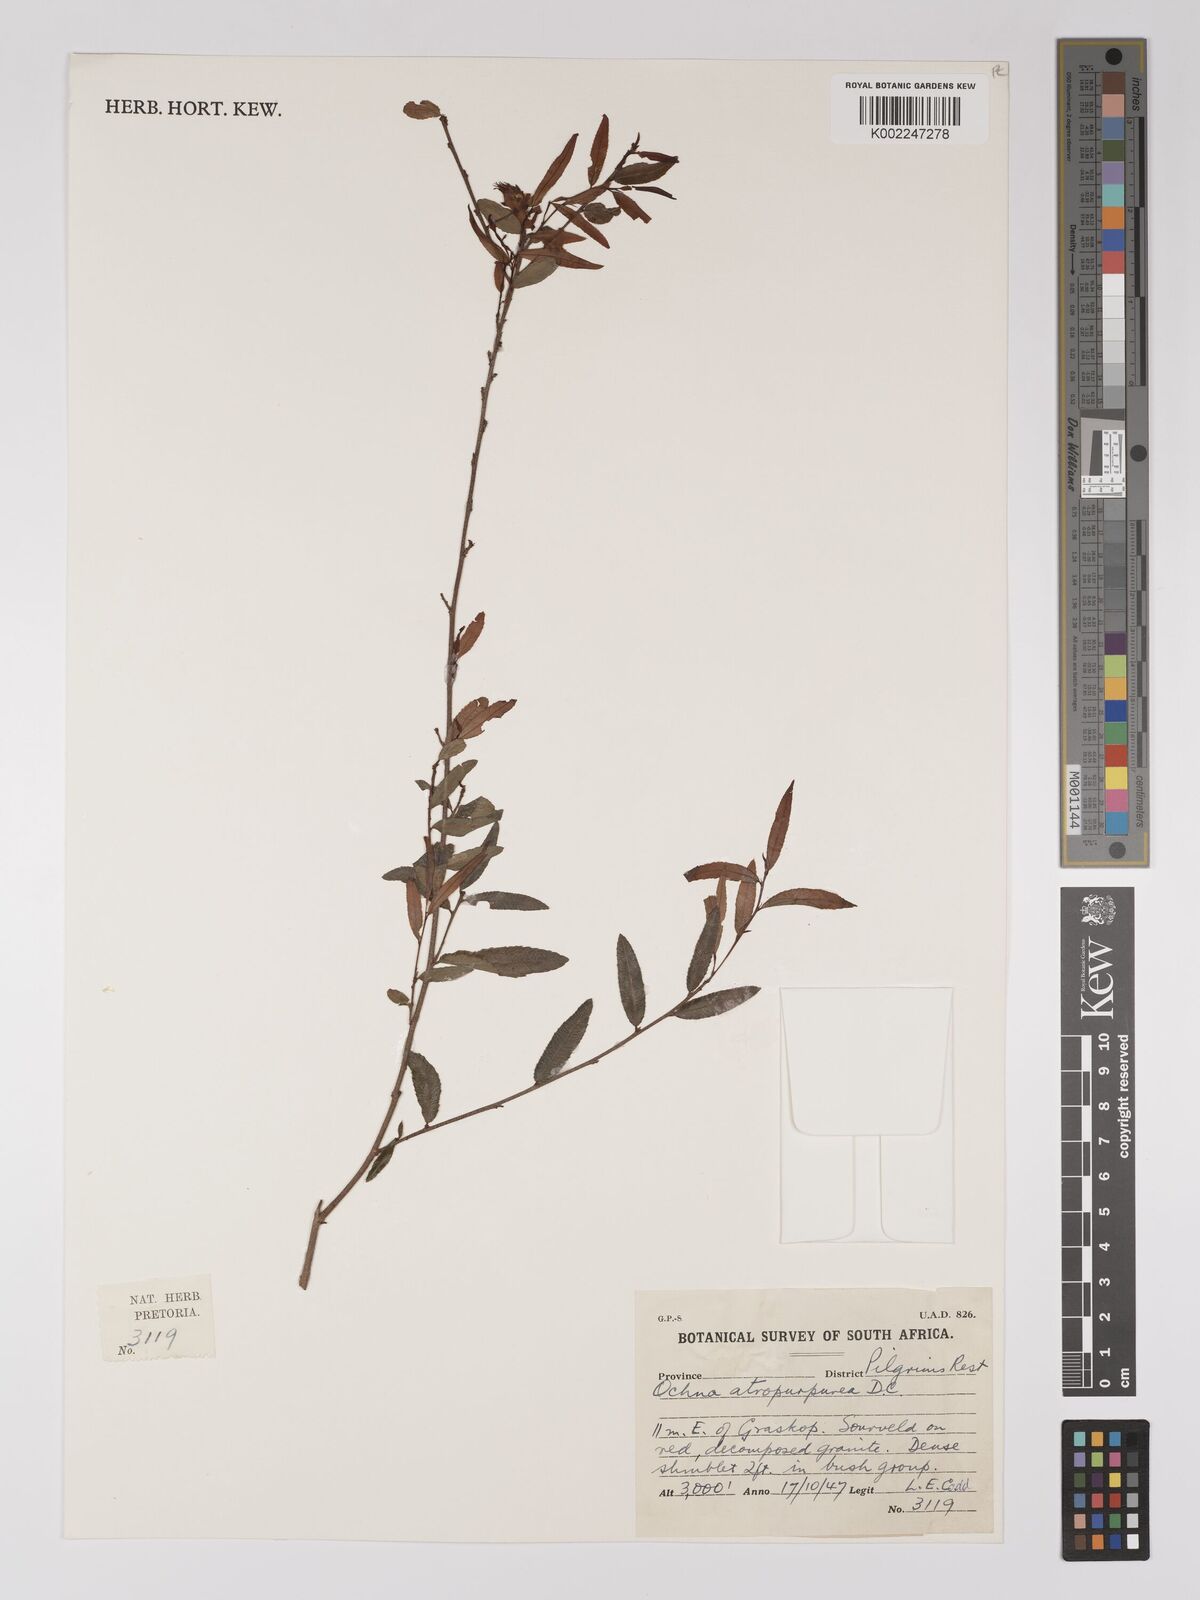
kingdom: Plantae
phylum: Tracheophyta
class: Magnoliopsida
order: Malpighiales
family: Ochnaceae
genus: Ochna
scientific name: Ochna gamostigmata
